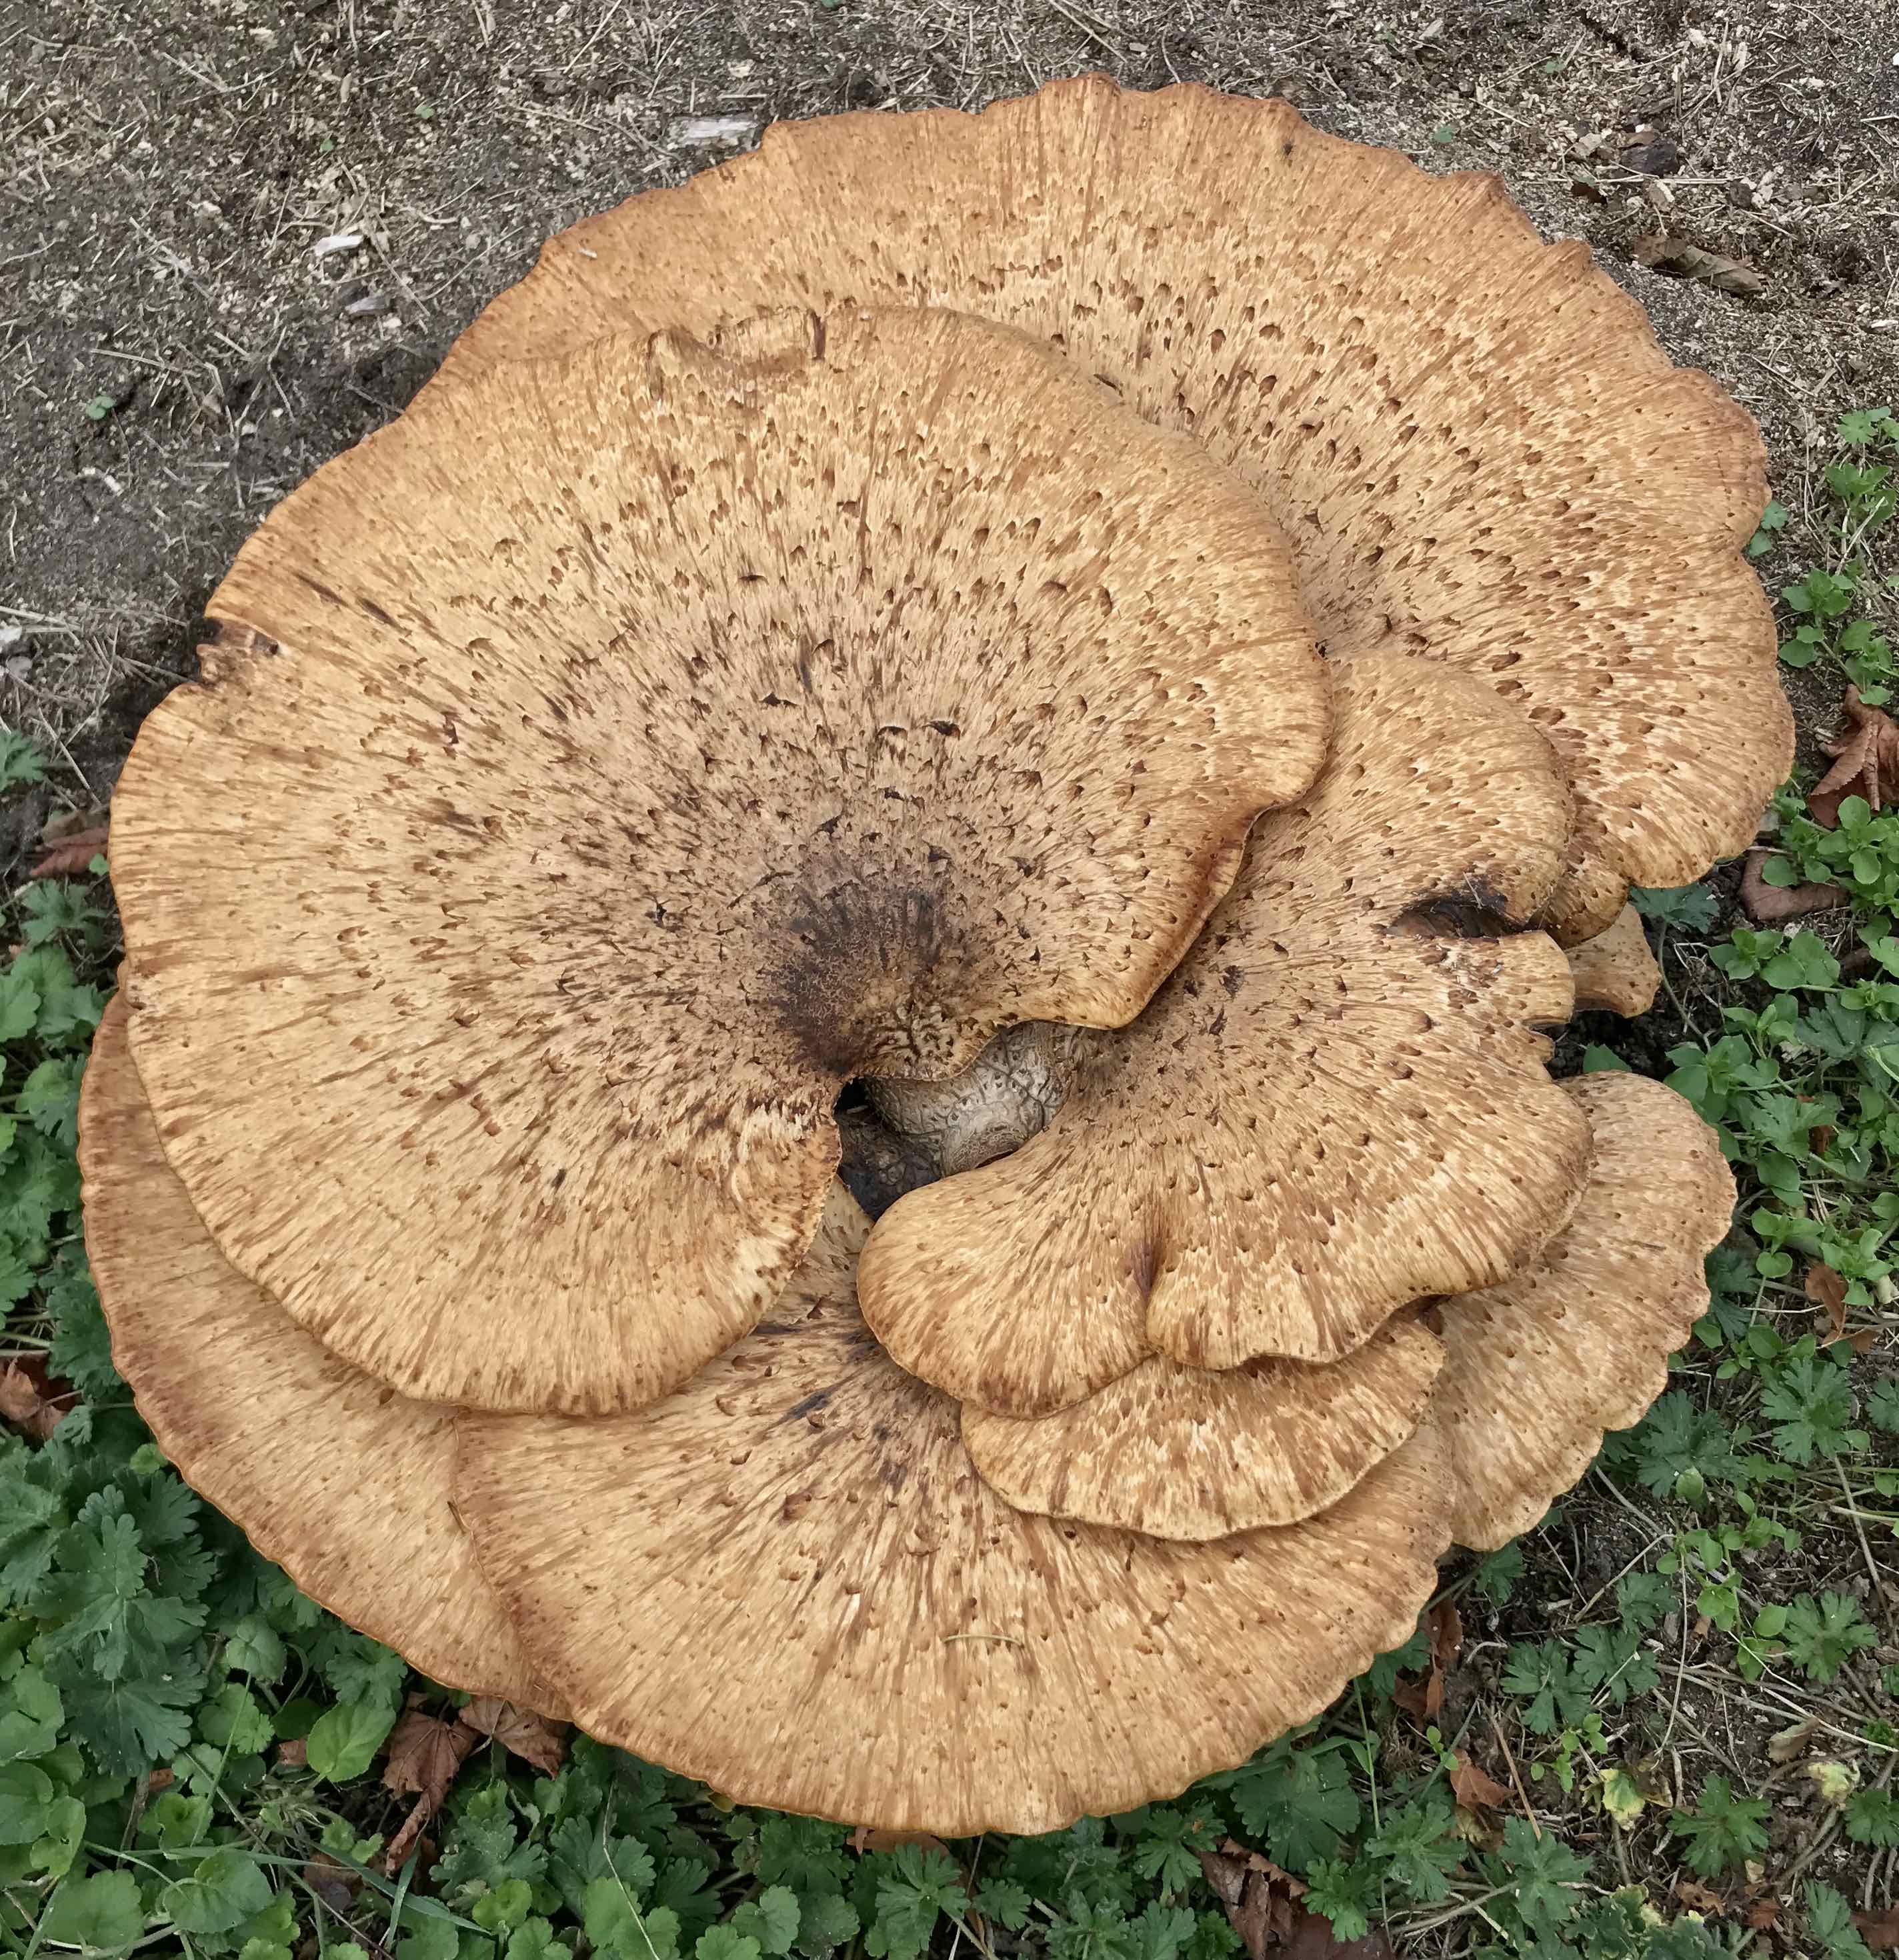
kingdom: Fungi
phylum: Basidiomycota
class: Agaricomycetes
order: Polyporales
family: Polyporaceae
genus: Cerioporus
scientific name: Cerioporus squamosus
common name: skællet stilkporesvamp
